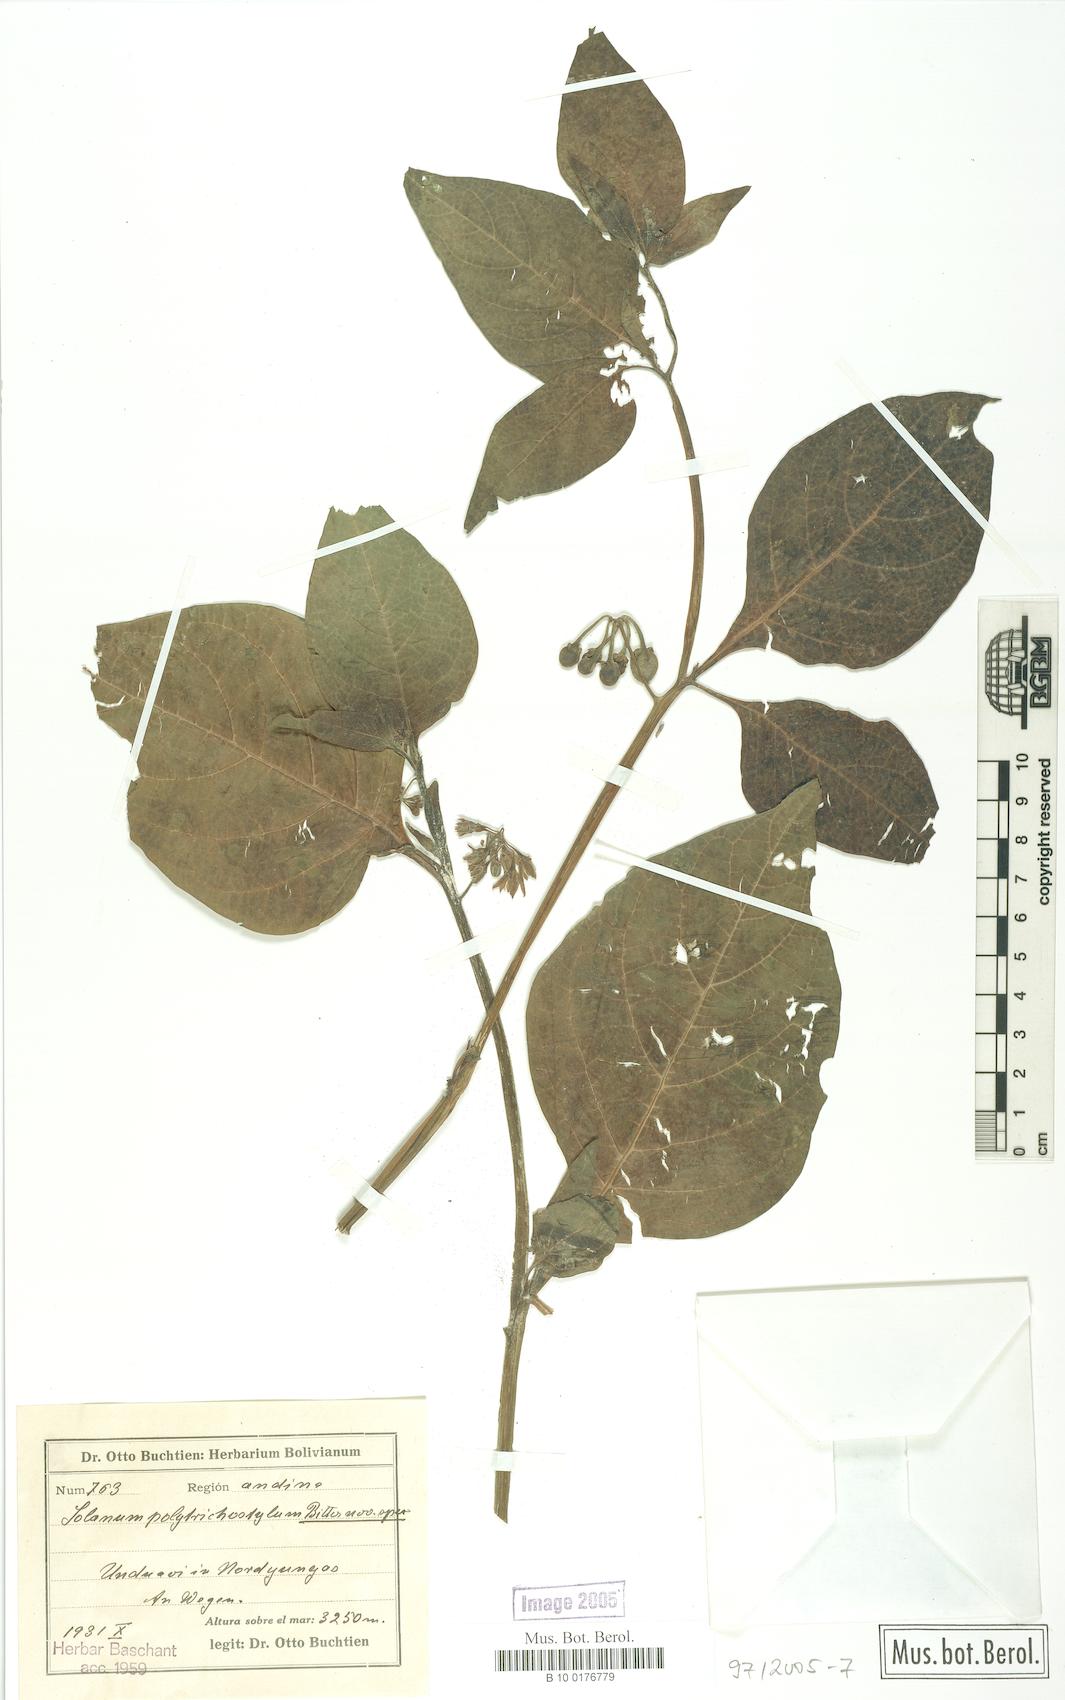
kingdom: Plantae
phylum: Tracheophyta
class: Magnoliopsida
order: Solanales
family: Solanaceae
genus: Solanum
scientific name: Solanum polytrichostylum
